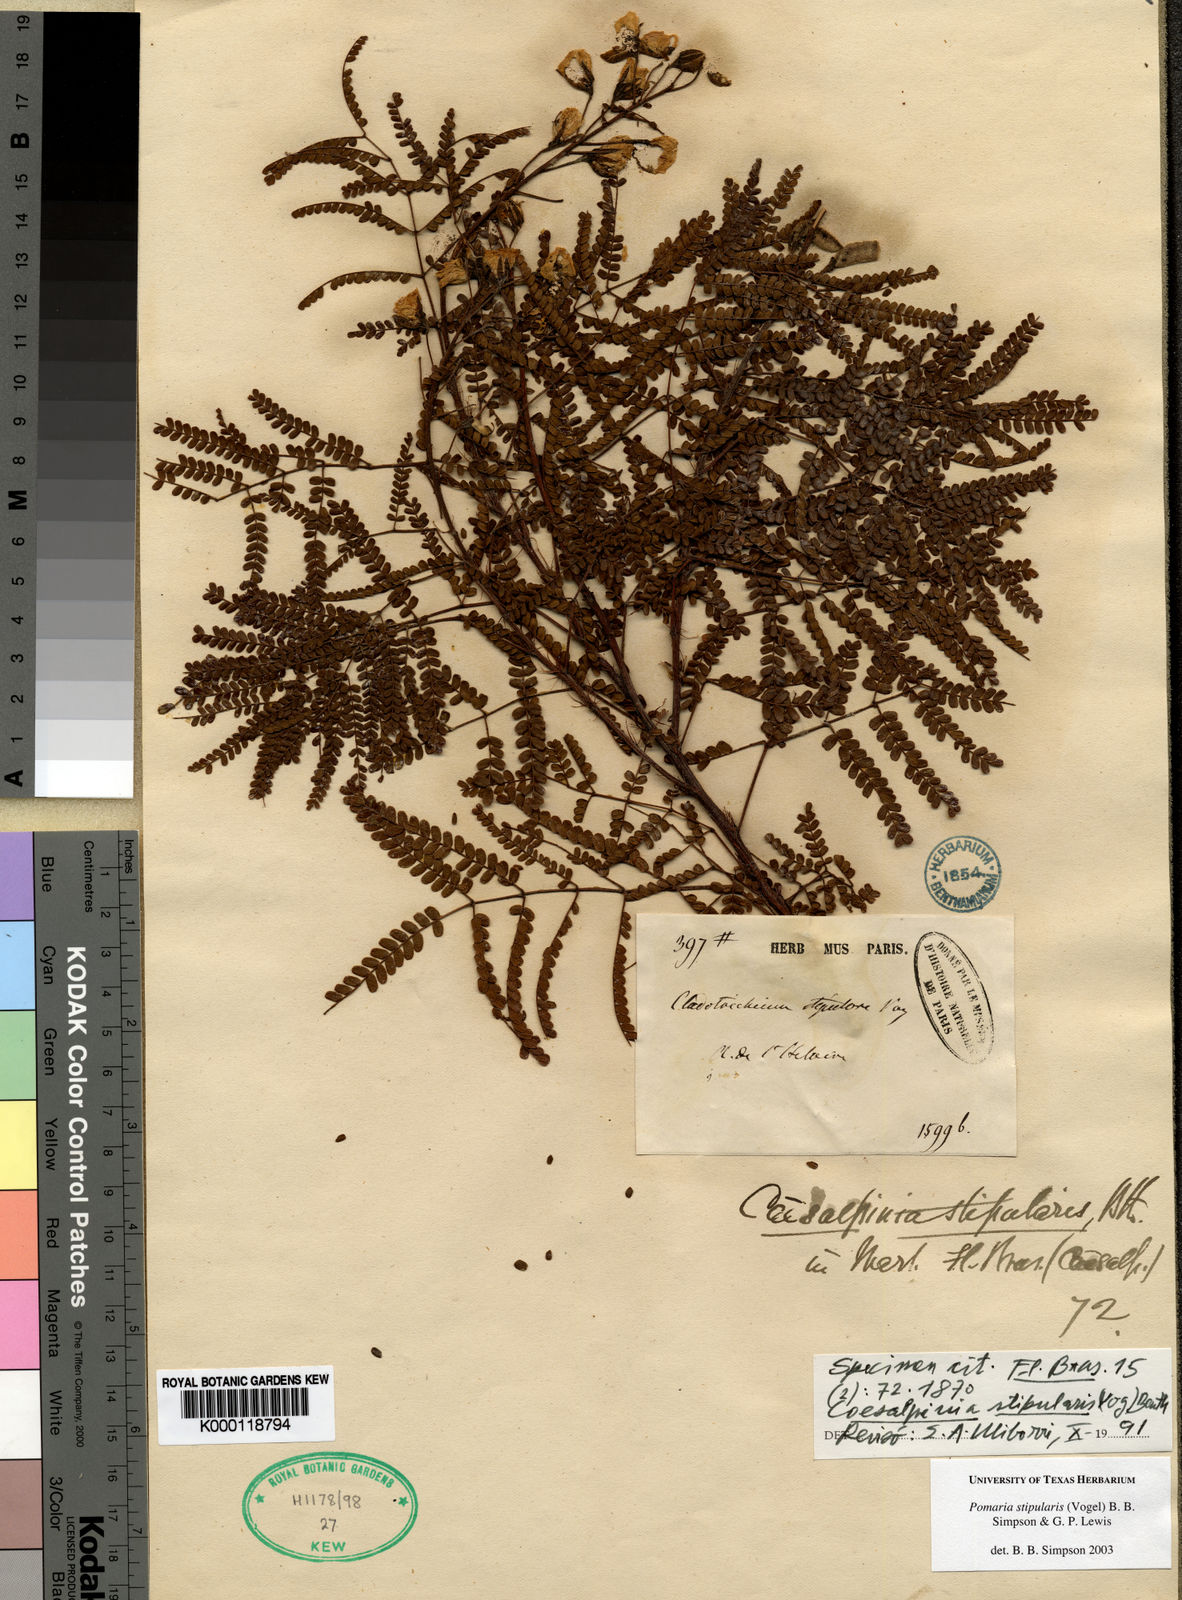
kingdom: Plantae
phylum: Tracheophyta
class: Magnoliopsida
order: Fabales
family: Fabaceae
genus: Pomaria
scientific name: Pomaria
